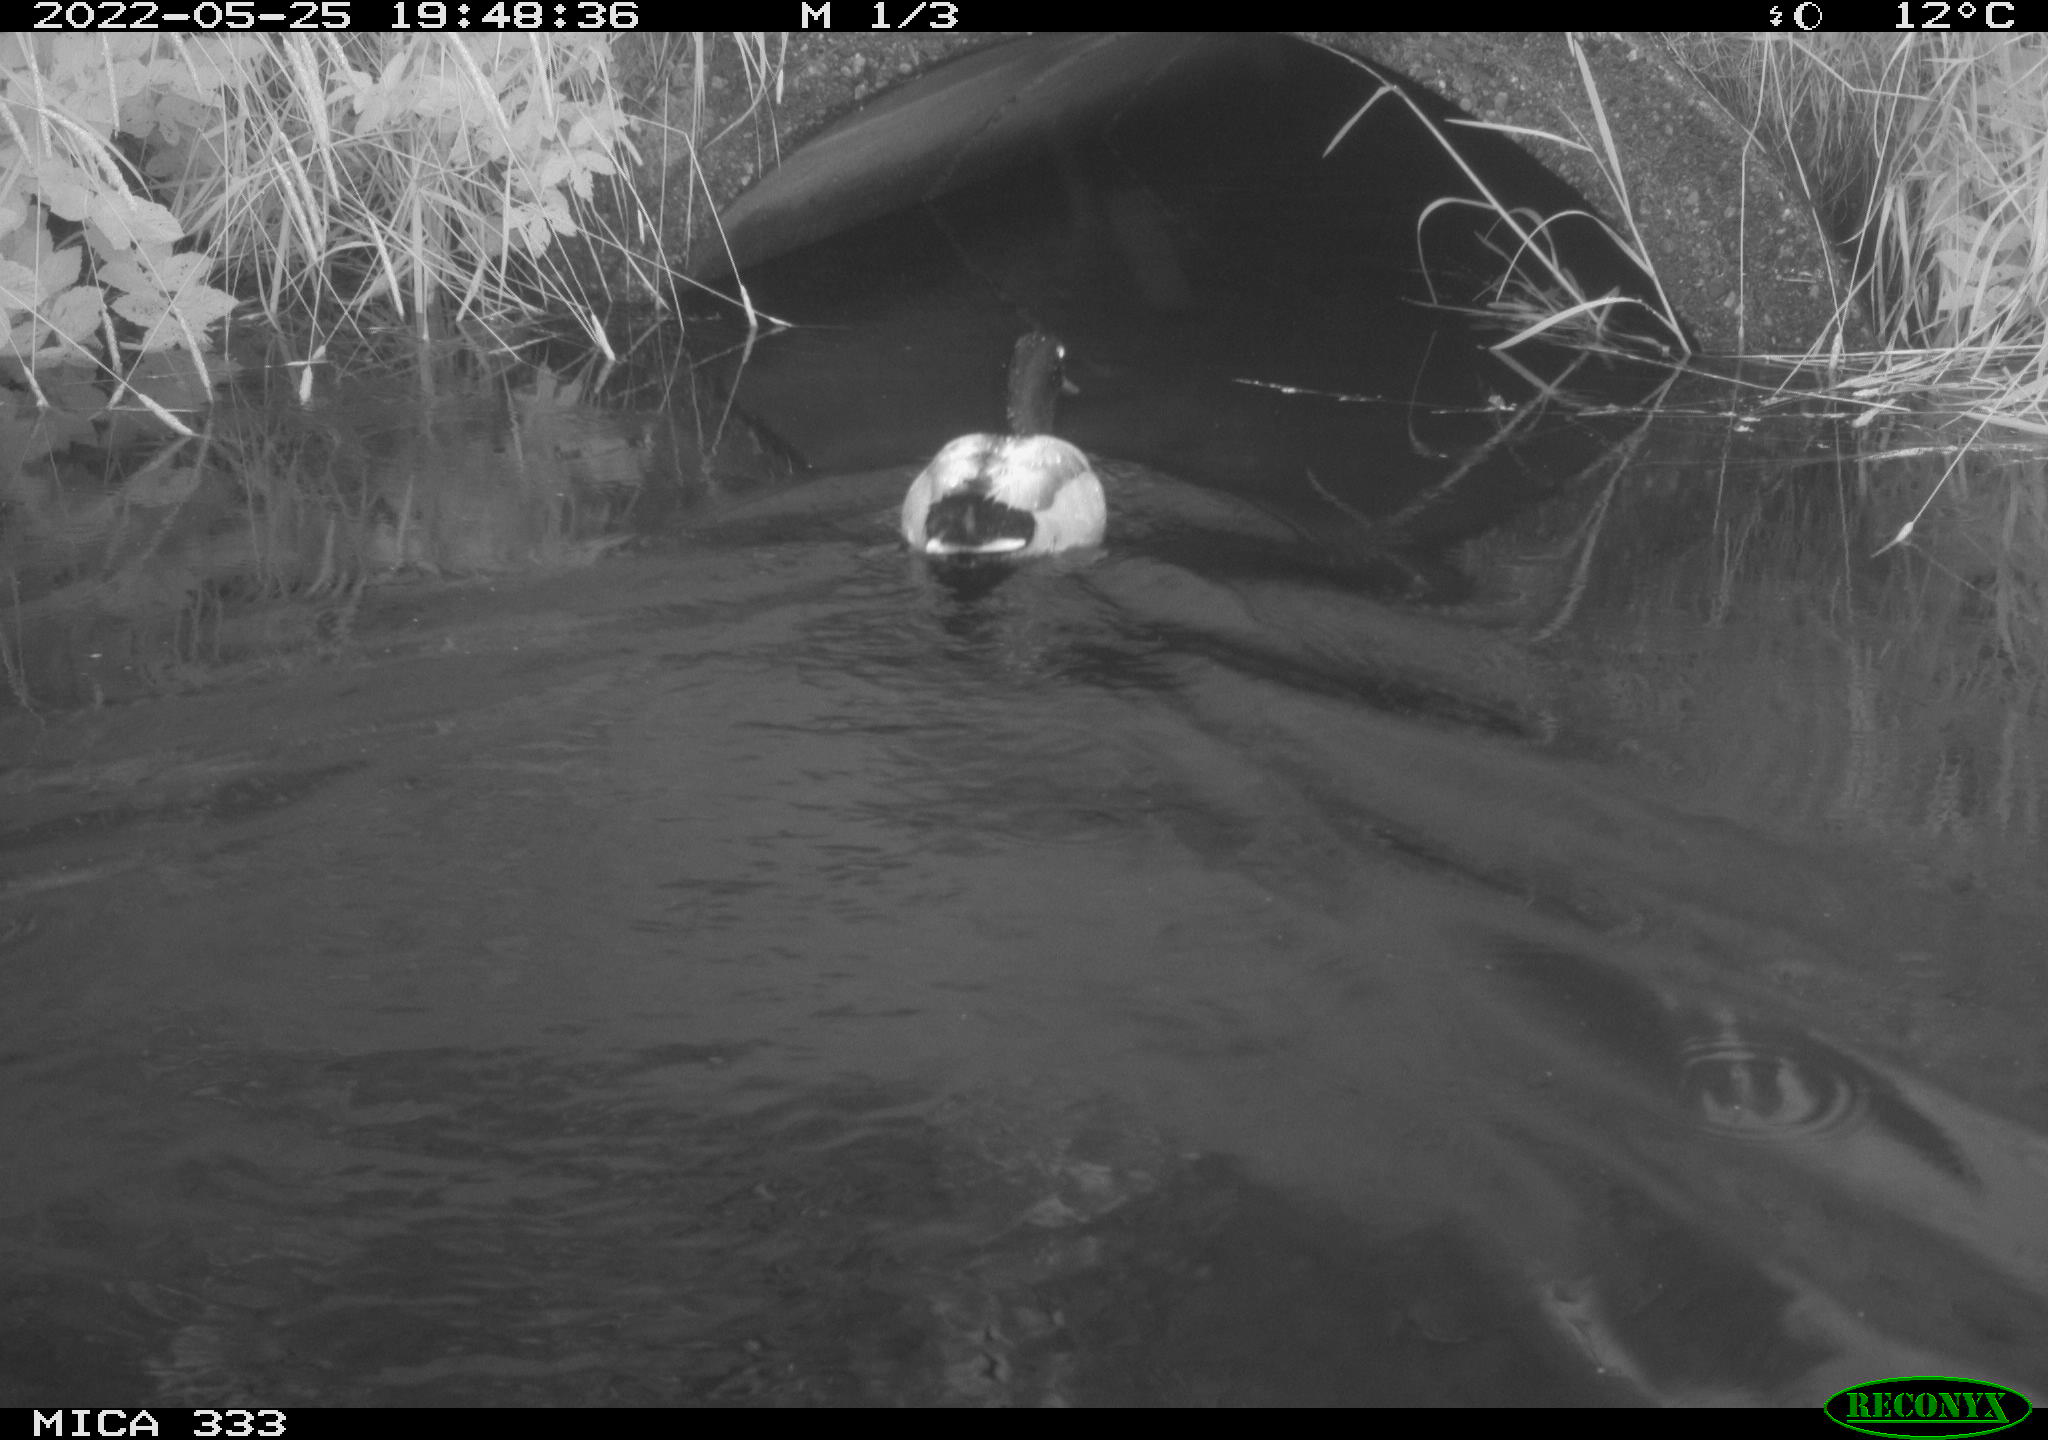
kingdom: Animalia
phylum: Chordata
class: Aves
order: Anseriformes
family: Anatidae
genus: Anas
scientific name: Anas platyrhynchos
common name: Mallard
